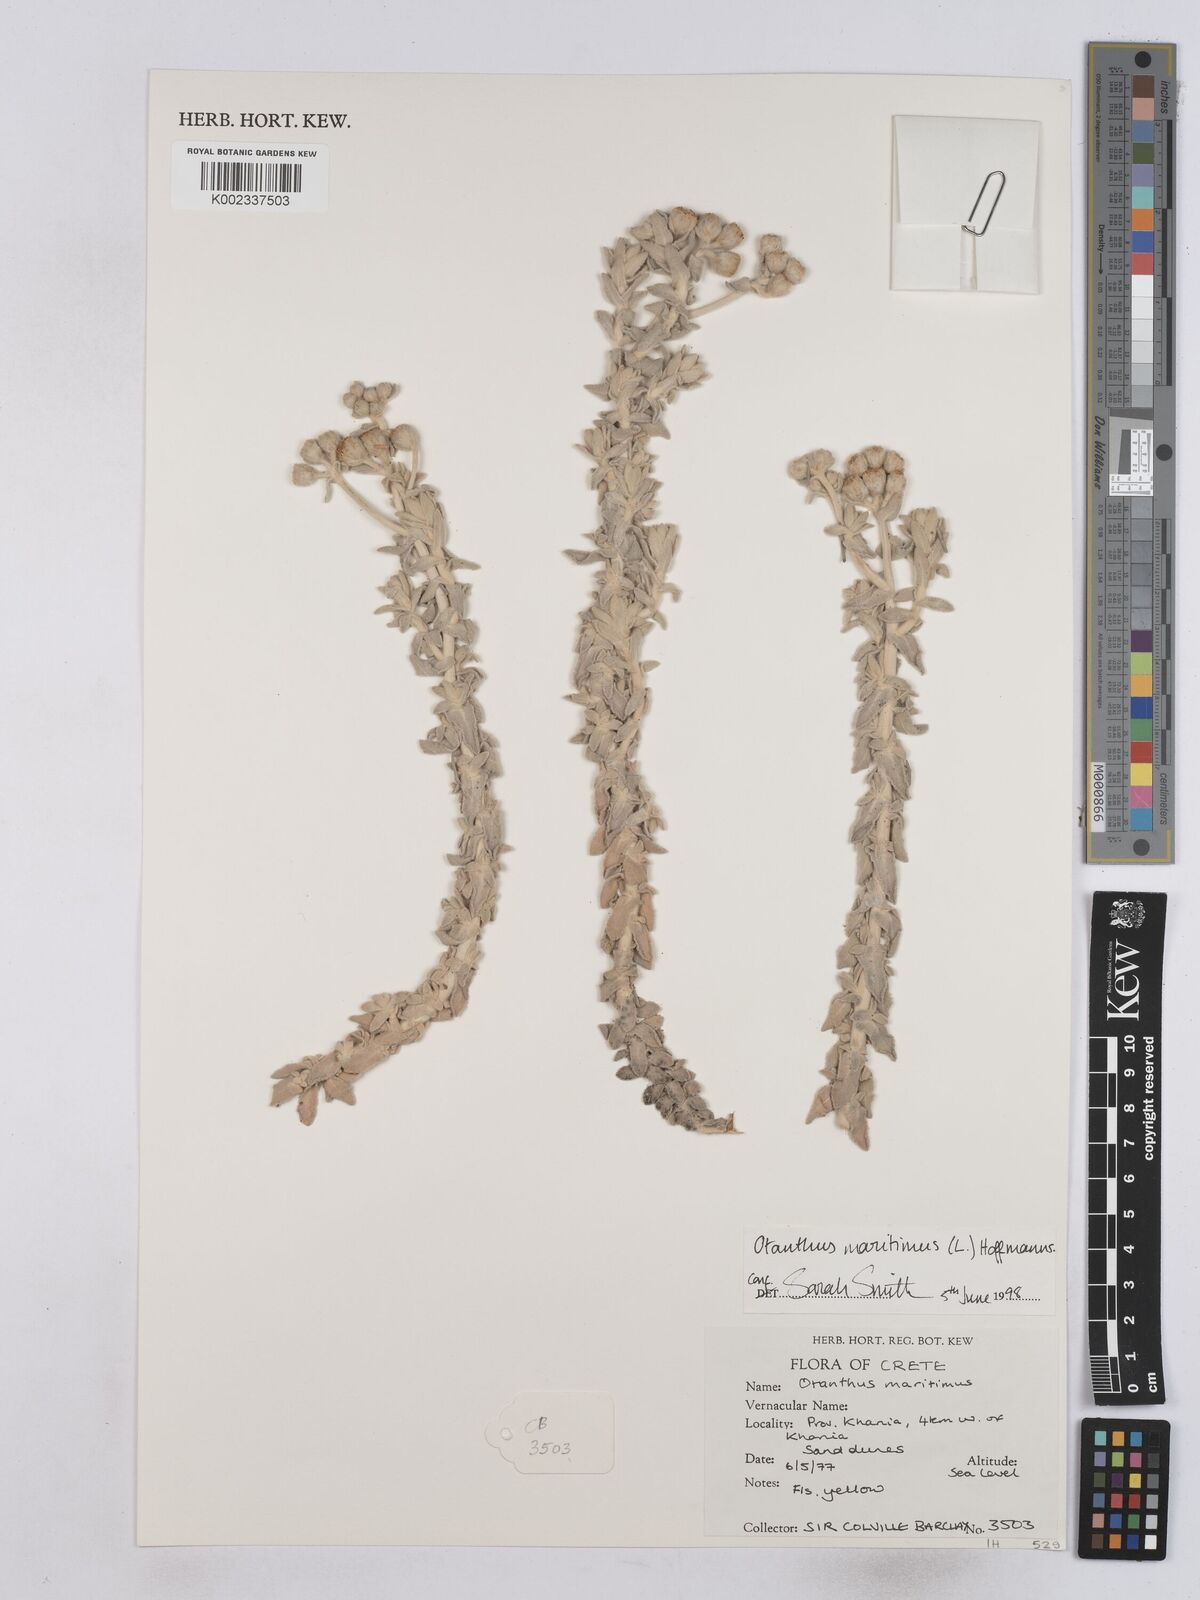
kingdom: Plantae
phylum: Tracheophyta
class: Magnoliopsida
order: Asterales
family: Asteraceae
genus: Achillea
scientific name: Achillea maritima
